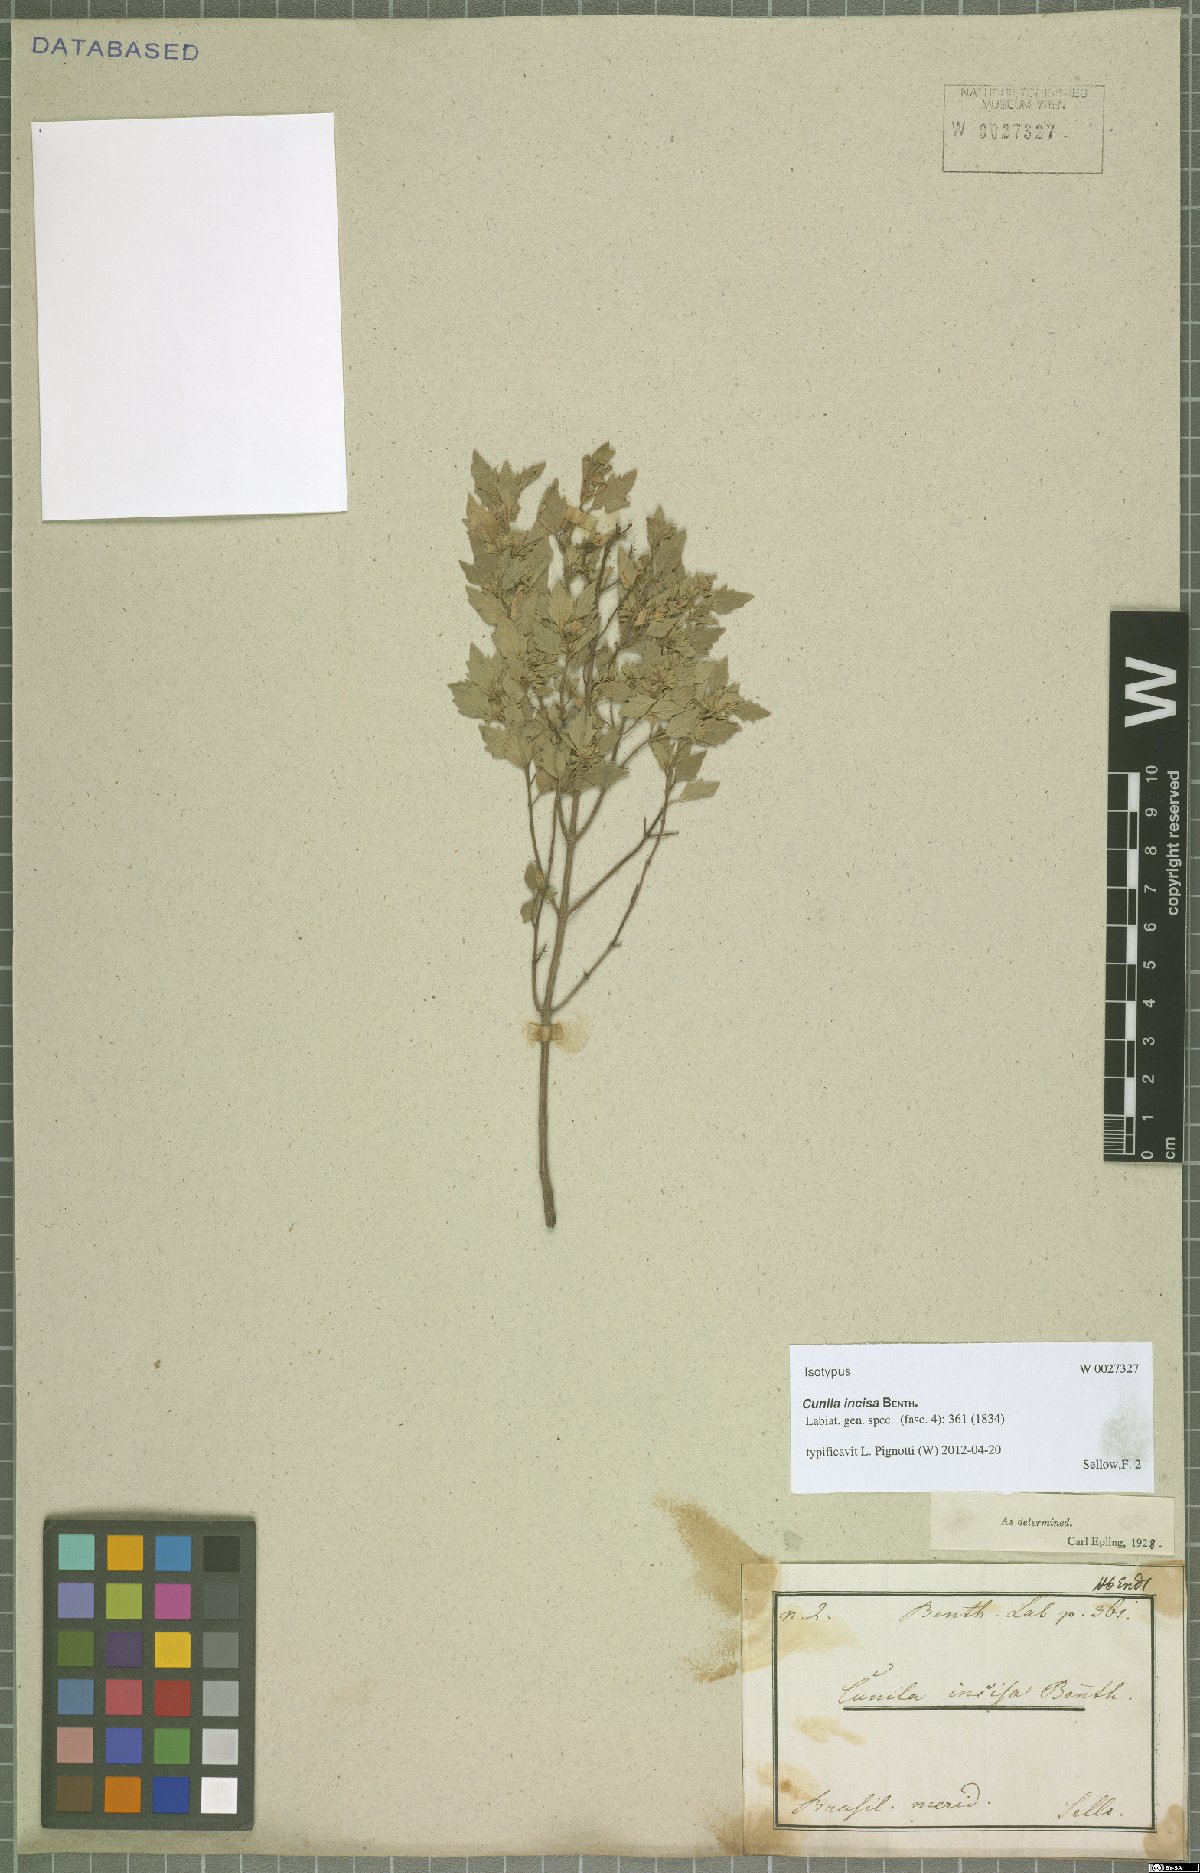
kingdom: Plantae
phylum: Tracheophyta
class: Magnoliopsida
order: Lamiales
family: Lamiaceae
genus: Cunila
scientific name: Cunila incisa
